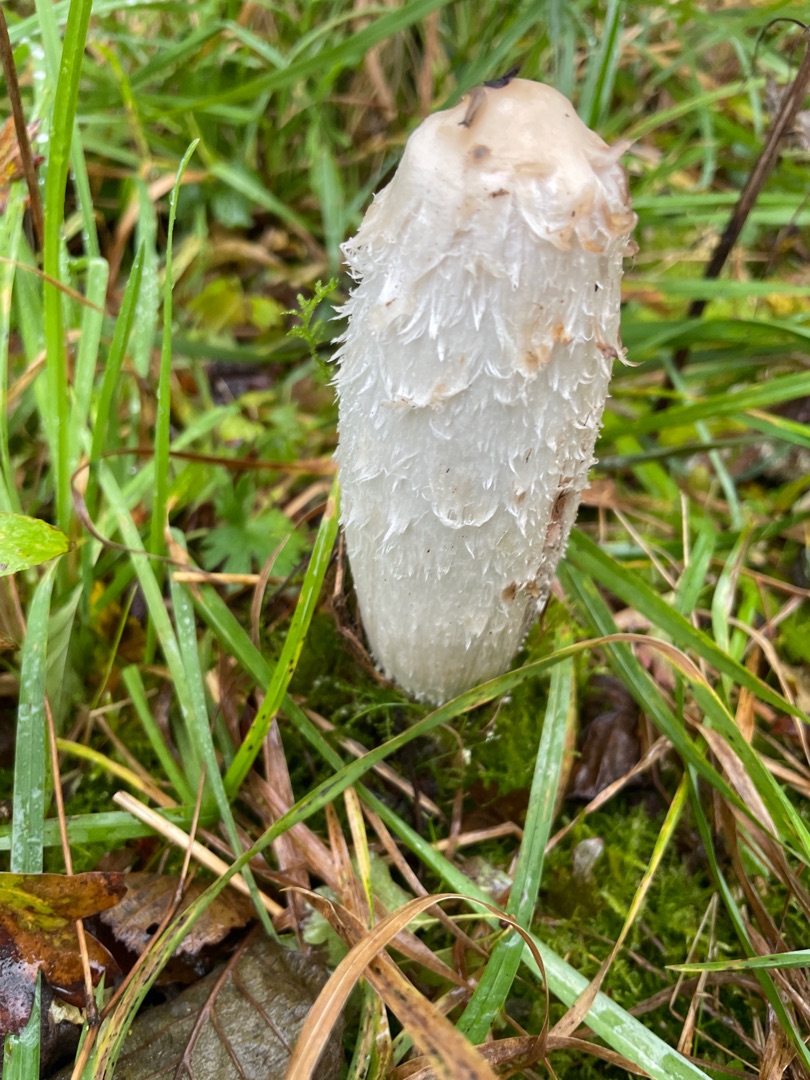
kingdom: Fungi
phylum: Basidiomycota
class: Agaricomycetes
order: Agaricales
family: Agaricaceae
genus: Coprinus
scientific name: Coprinus comatus
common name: Stor parykhat
